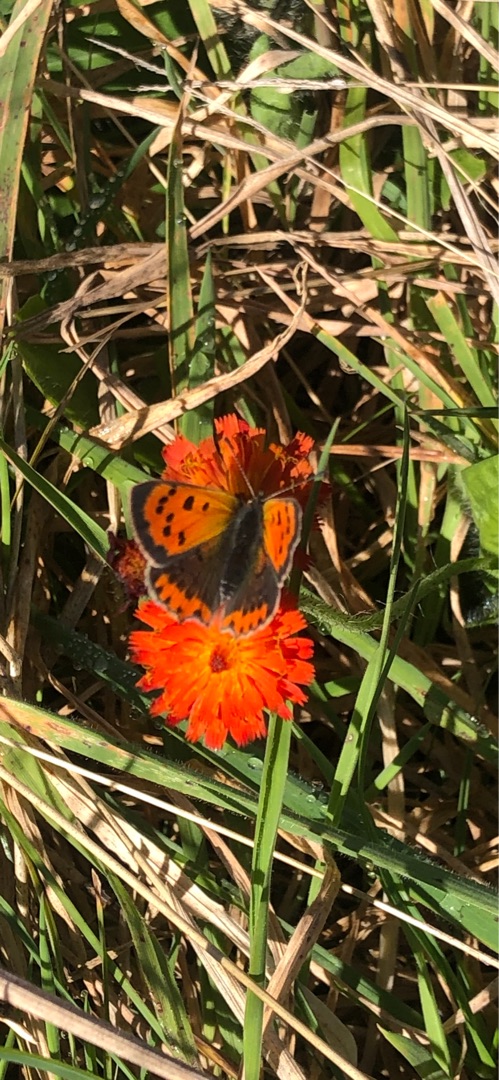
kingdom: Animalia
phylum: Arthropoda
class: Insecta
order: Lepidoptera
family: Lycaenidae
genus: Lycaena
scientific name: Lycaena phlaeas
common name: Lille ildfugl
